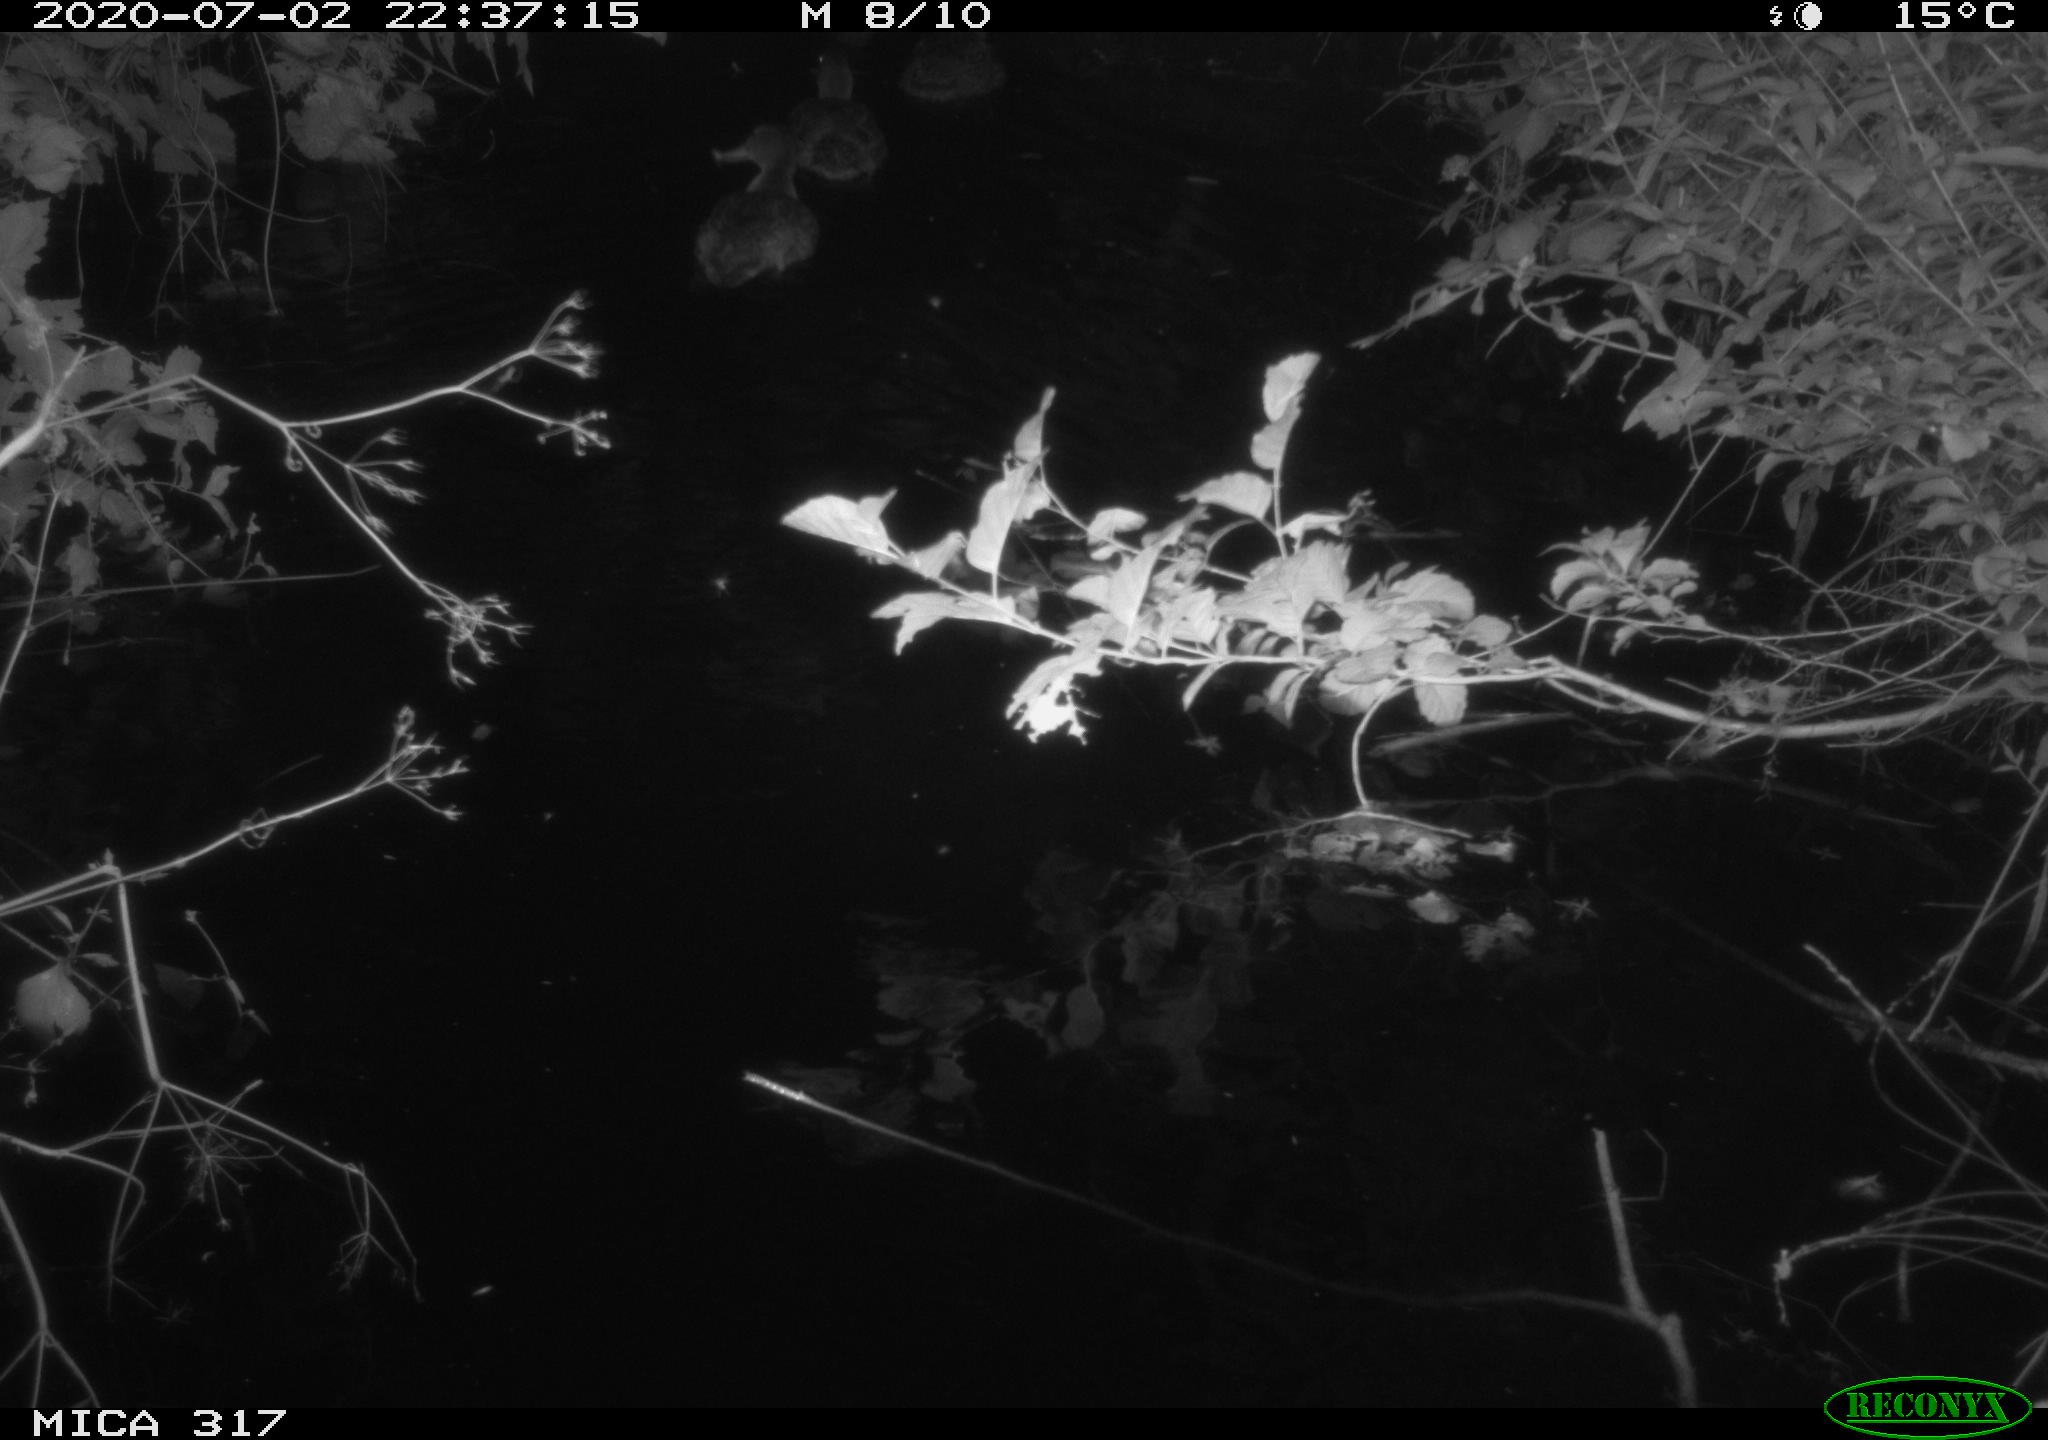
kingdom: Animalia
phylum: Chordata
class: Aves
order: Anseriformes
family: Anatidae
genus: Anas
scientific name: Anas platyrhynchos
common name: Mallard
